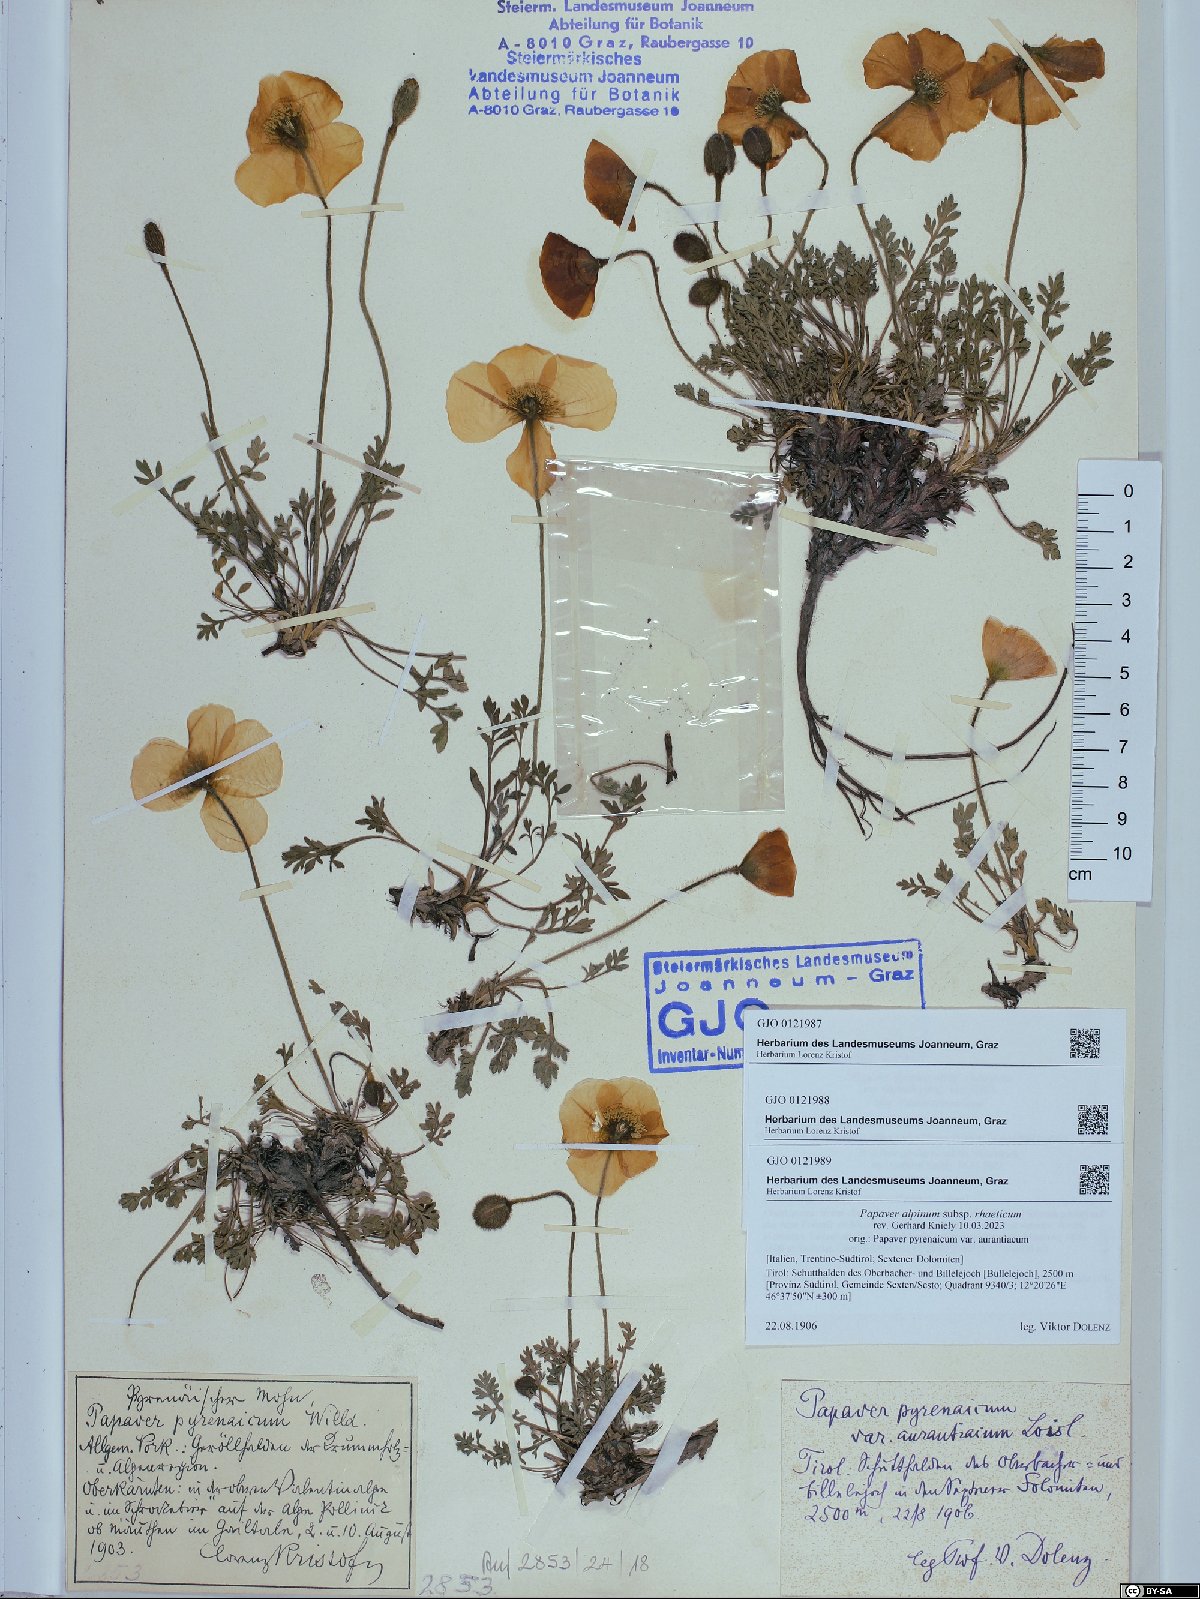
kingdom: Plantae
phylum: Tracheophyta
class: Magnoliopsida
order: Ranunculales
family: Papaveraceae
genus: Papaver
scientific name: Papaver alpinum
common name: Austrian poppy
